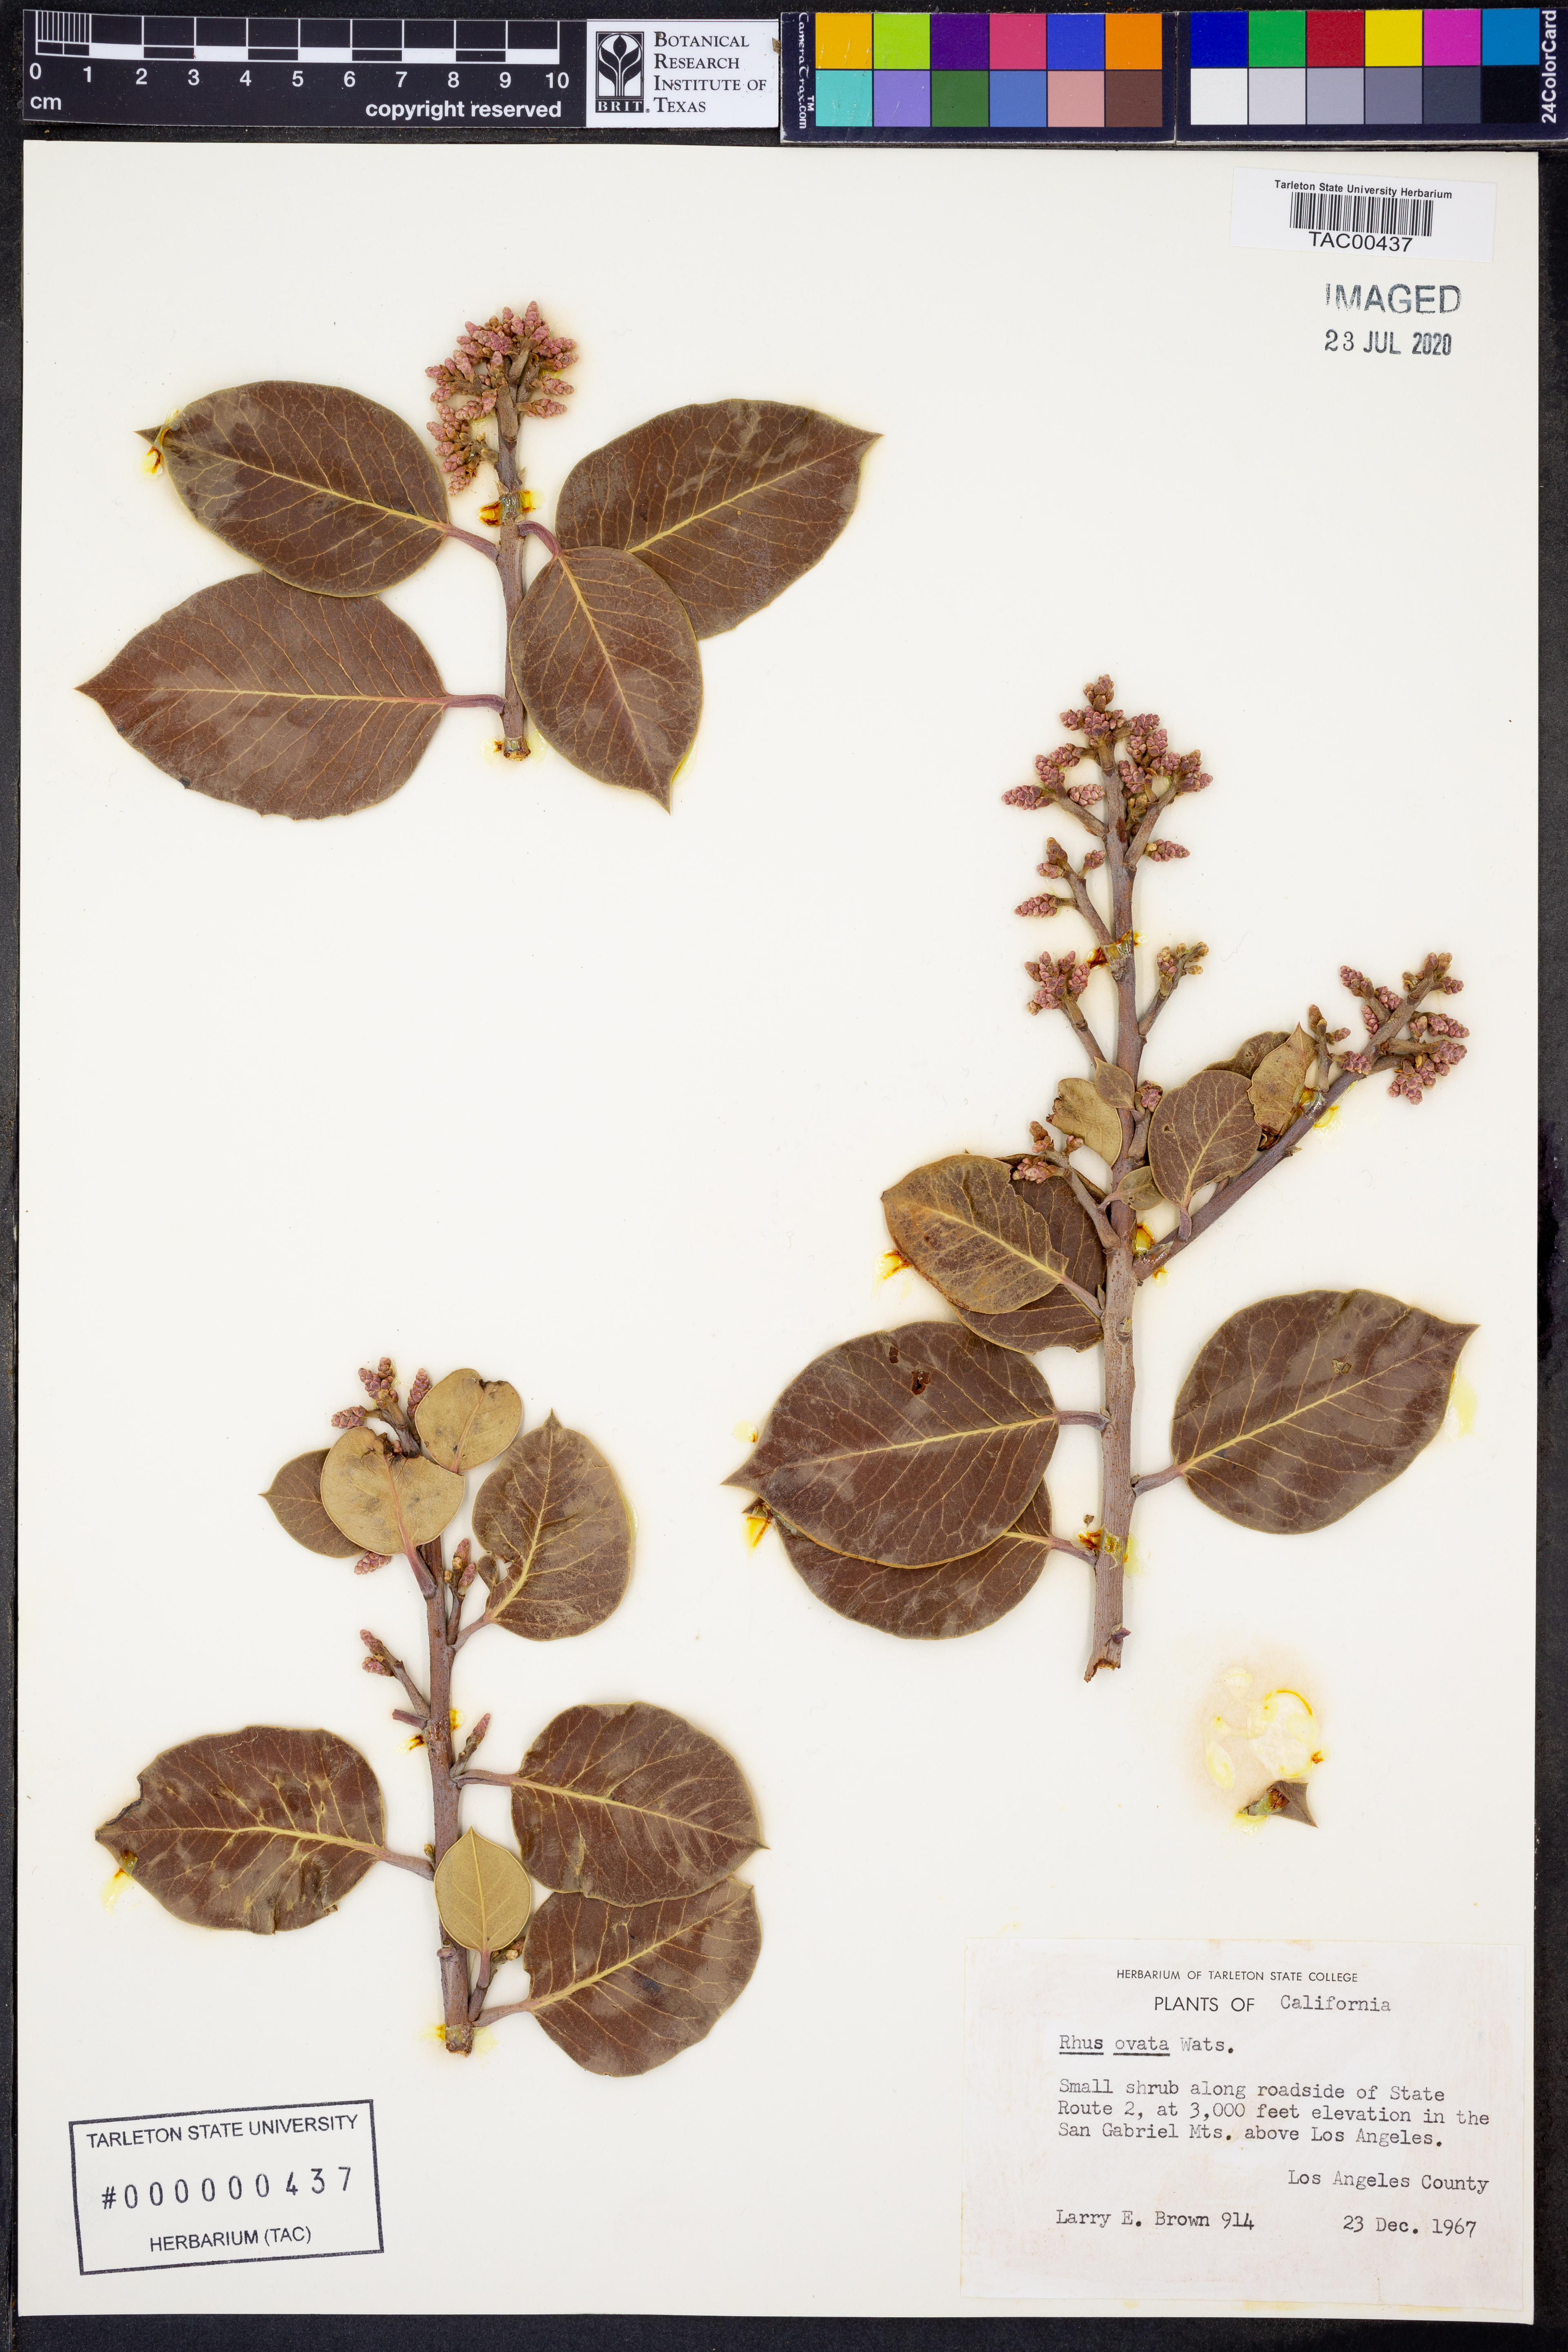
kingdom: Plantae
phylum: Tracheophyta
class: Magnoliopsida
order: Sapindales
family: Anacardiaceae
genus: Rhus
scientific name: Rhus ovata
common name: Sugar sumac
